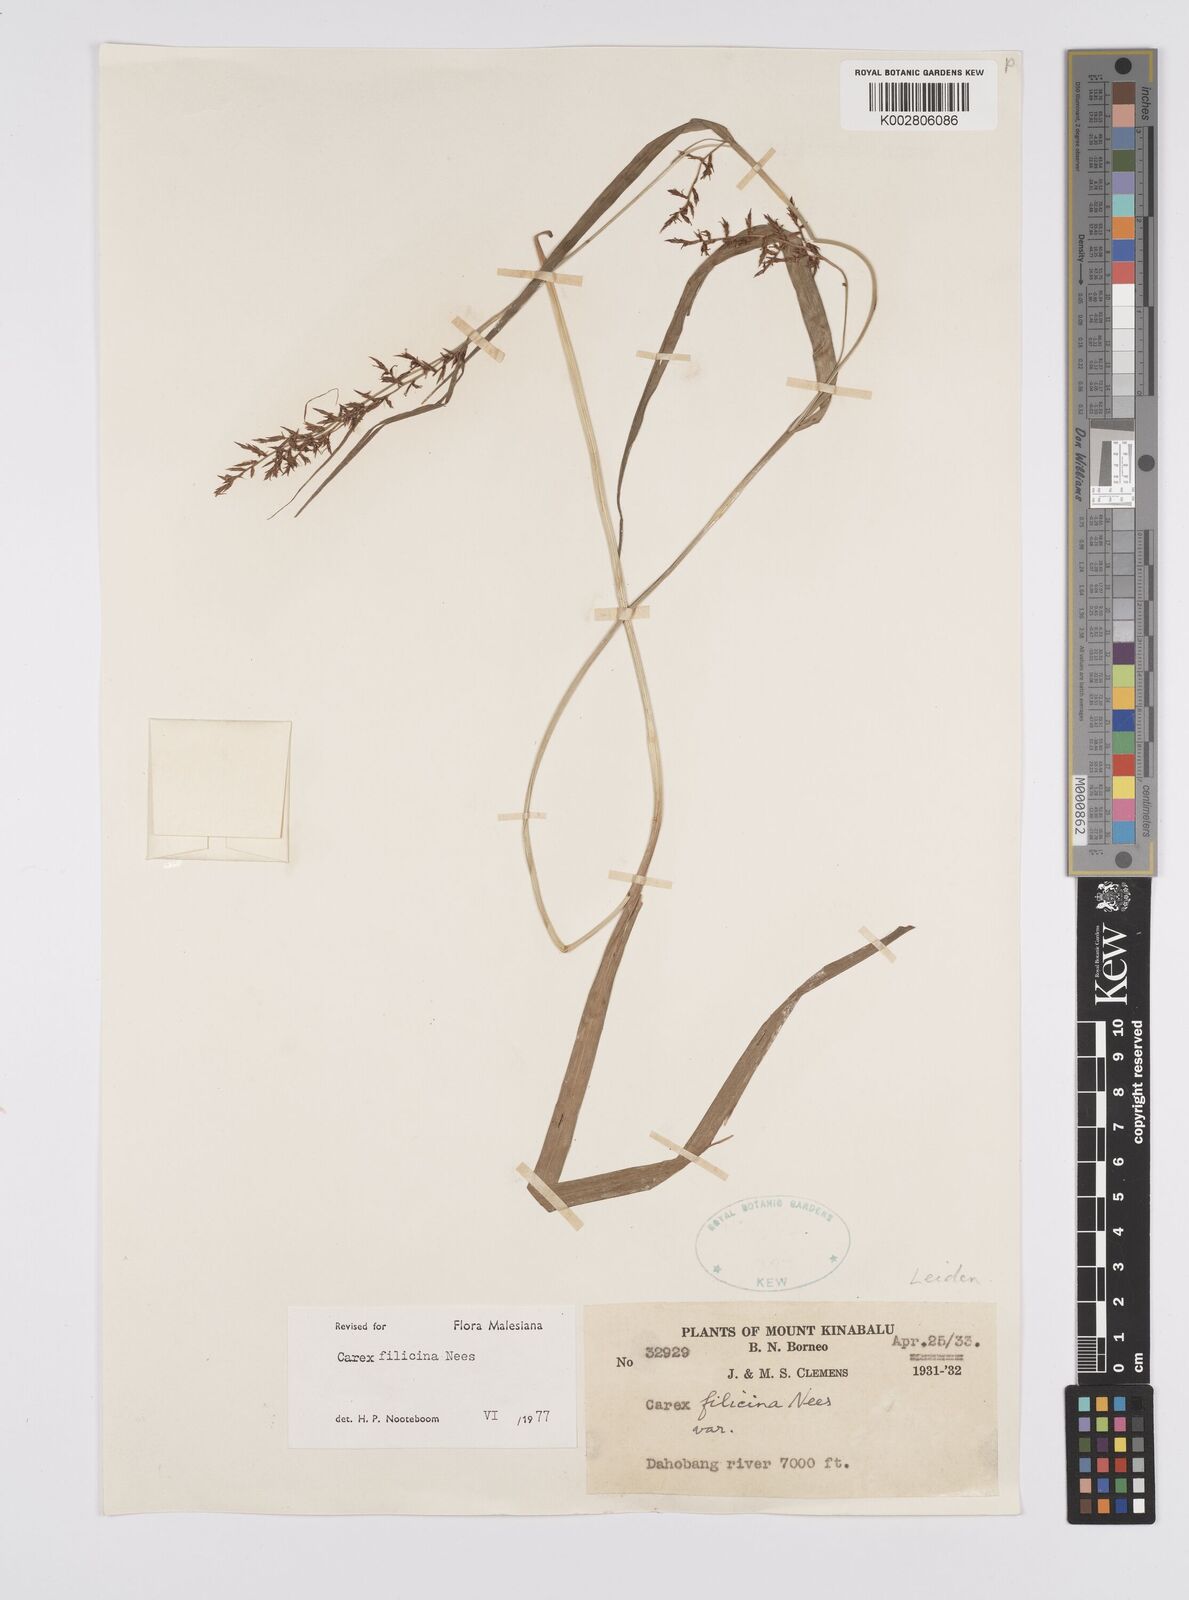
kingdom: Plantae
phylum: Tracheophyta
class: Liliopsida
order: Poales
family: Cyperaceae
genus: Carex
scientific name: Carex filicina
